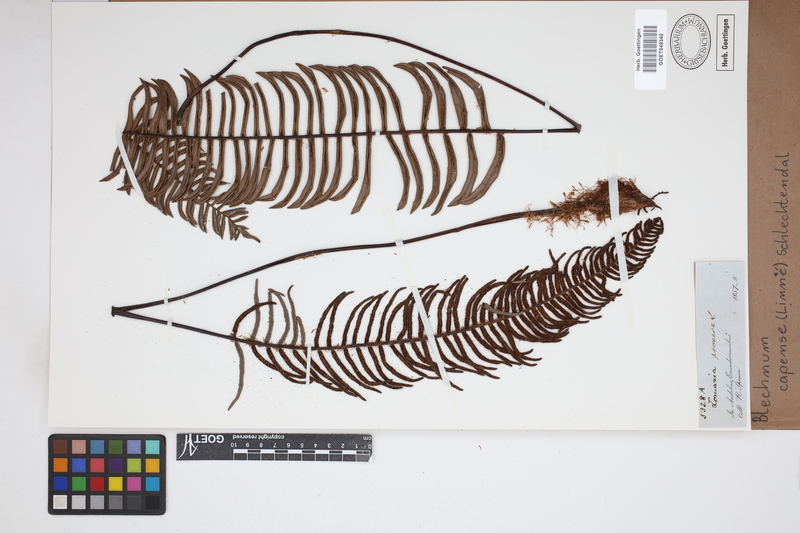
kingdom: Plantae
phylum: Tracheophyta
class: Polypodiopsida
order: Polypodiales
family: Blechnaceae
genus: Parablechnum
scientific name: Parablechnum capense
